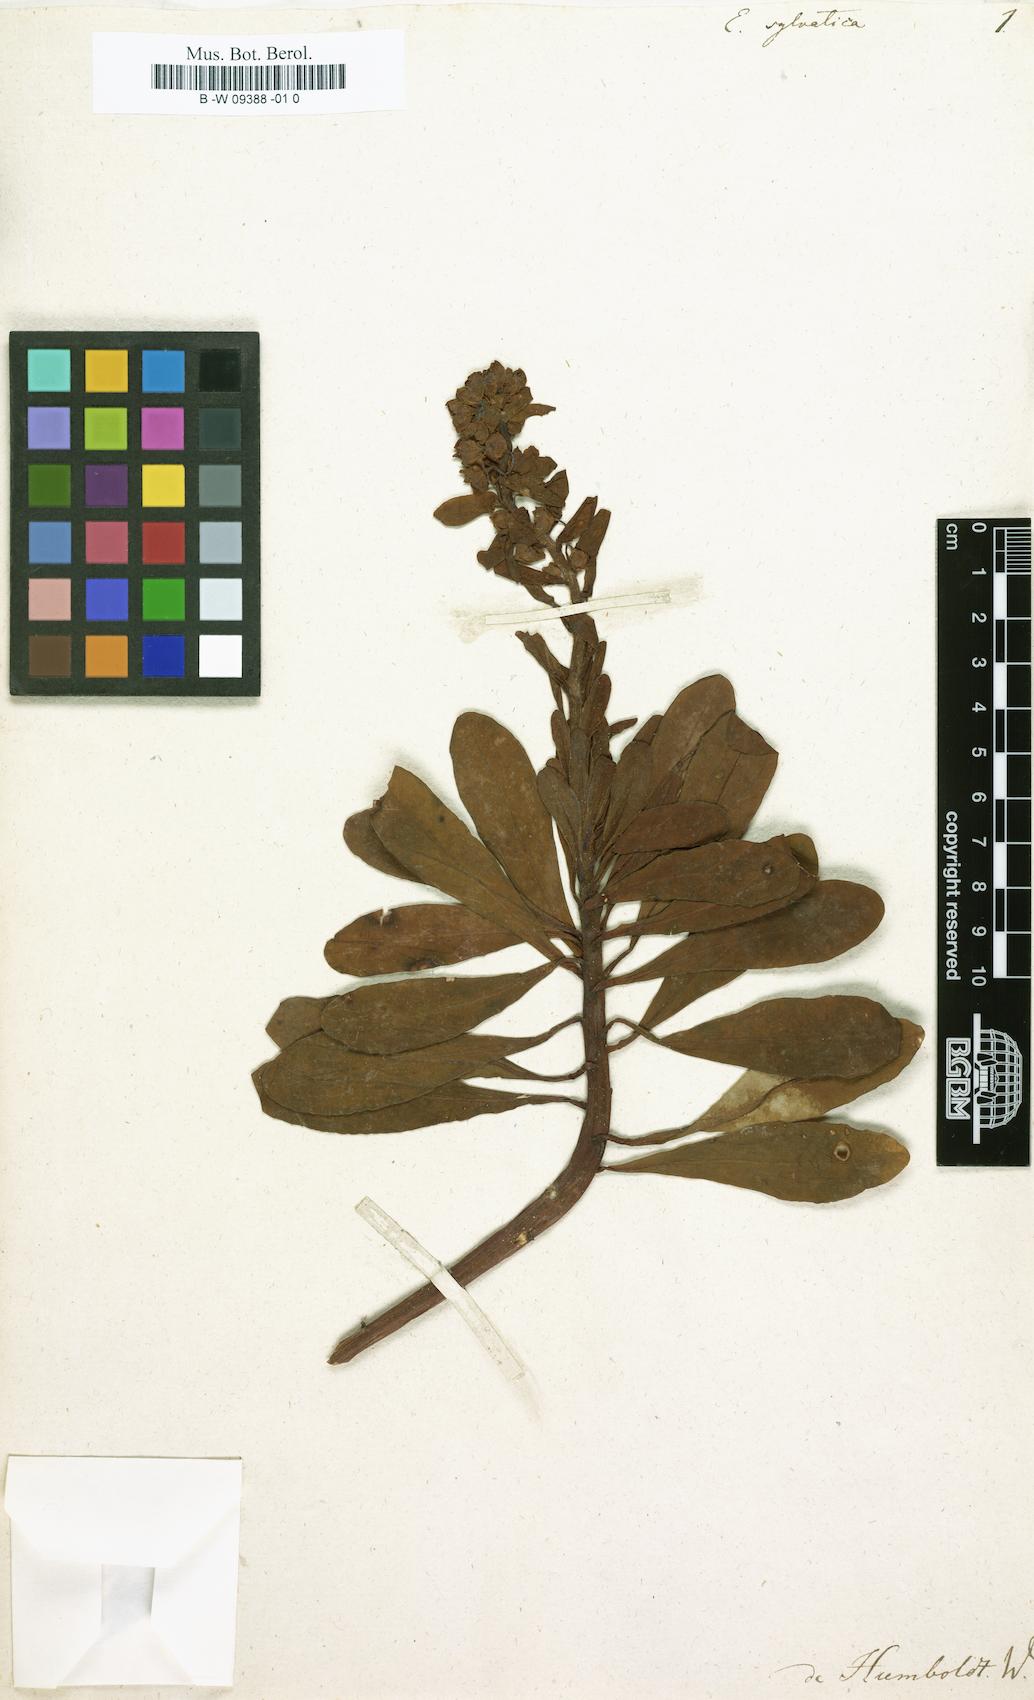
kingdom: Plantae
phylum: Tracheophyta
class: Magnoliopsida
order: Malpighiales
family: Euphorbiaceae
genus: Euphorbia
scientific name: Euphorbia amygdaloides
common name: Wood spurge
